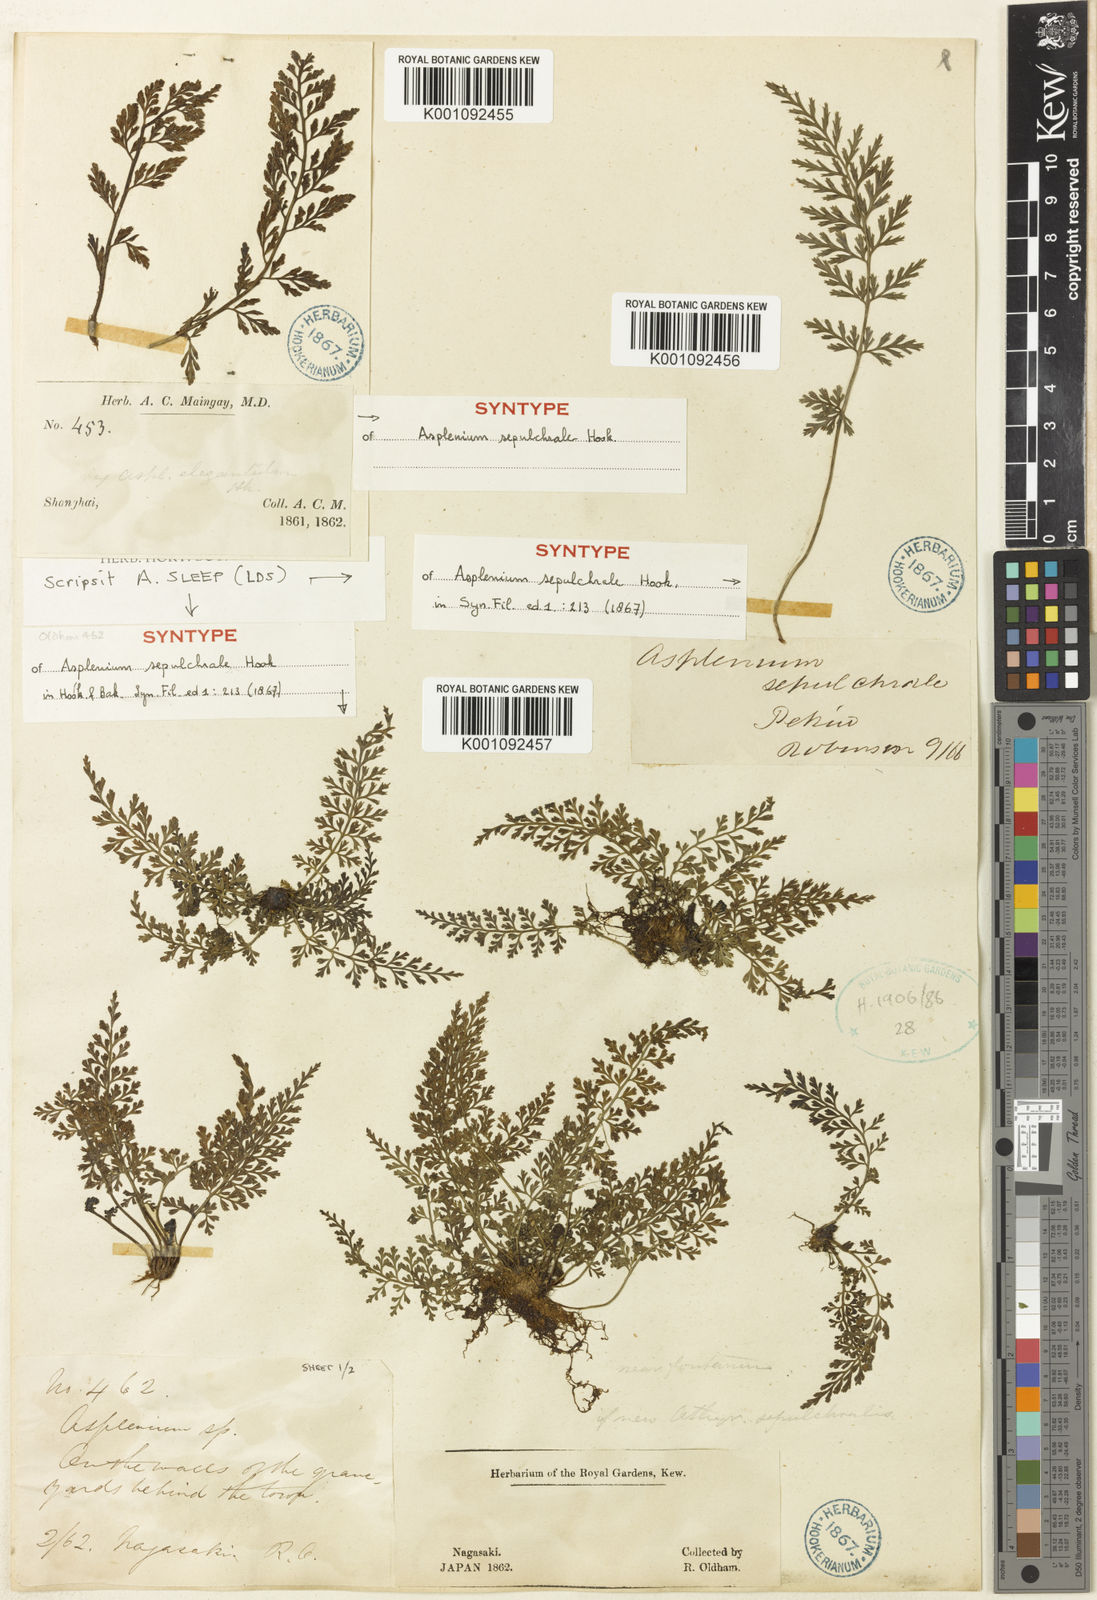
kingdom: Plantae
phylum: Tracheophyta
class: Polypodiopsida
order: Polypodiales
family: Aspleniaceae
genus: Asplenium
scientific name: Asplenium sarelii
